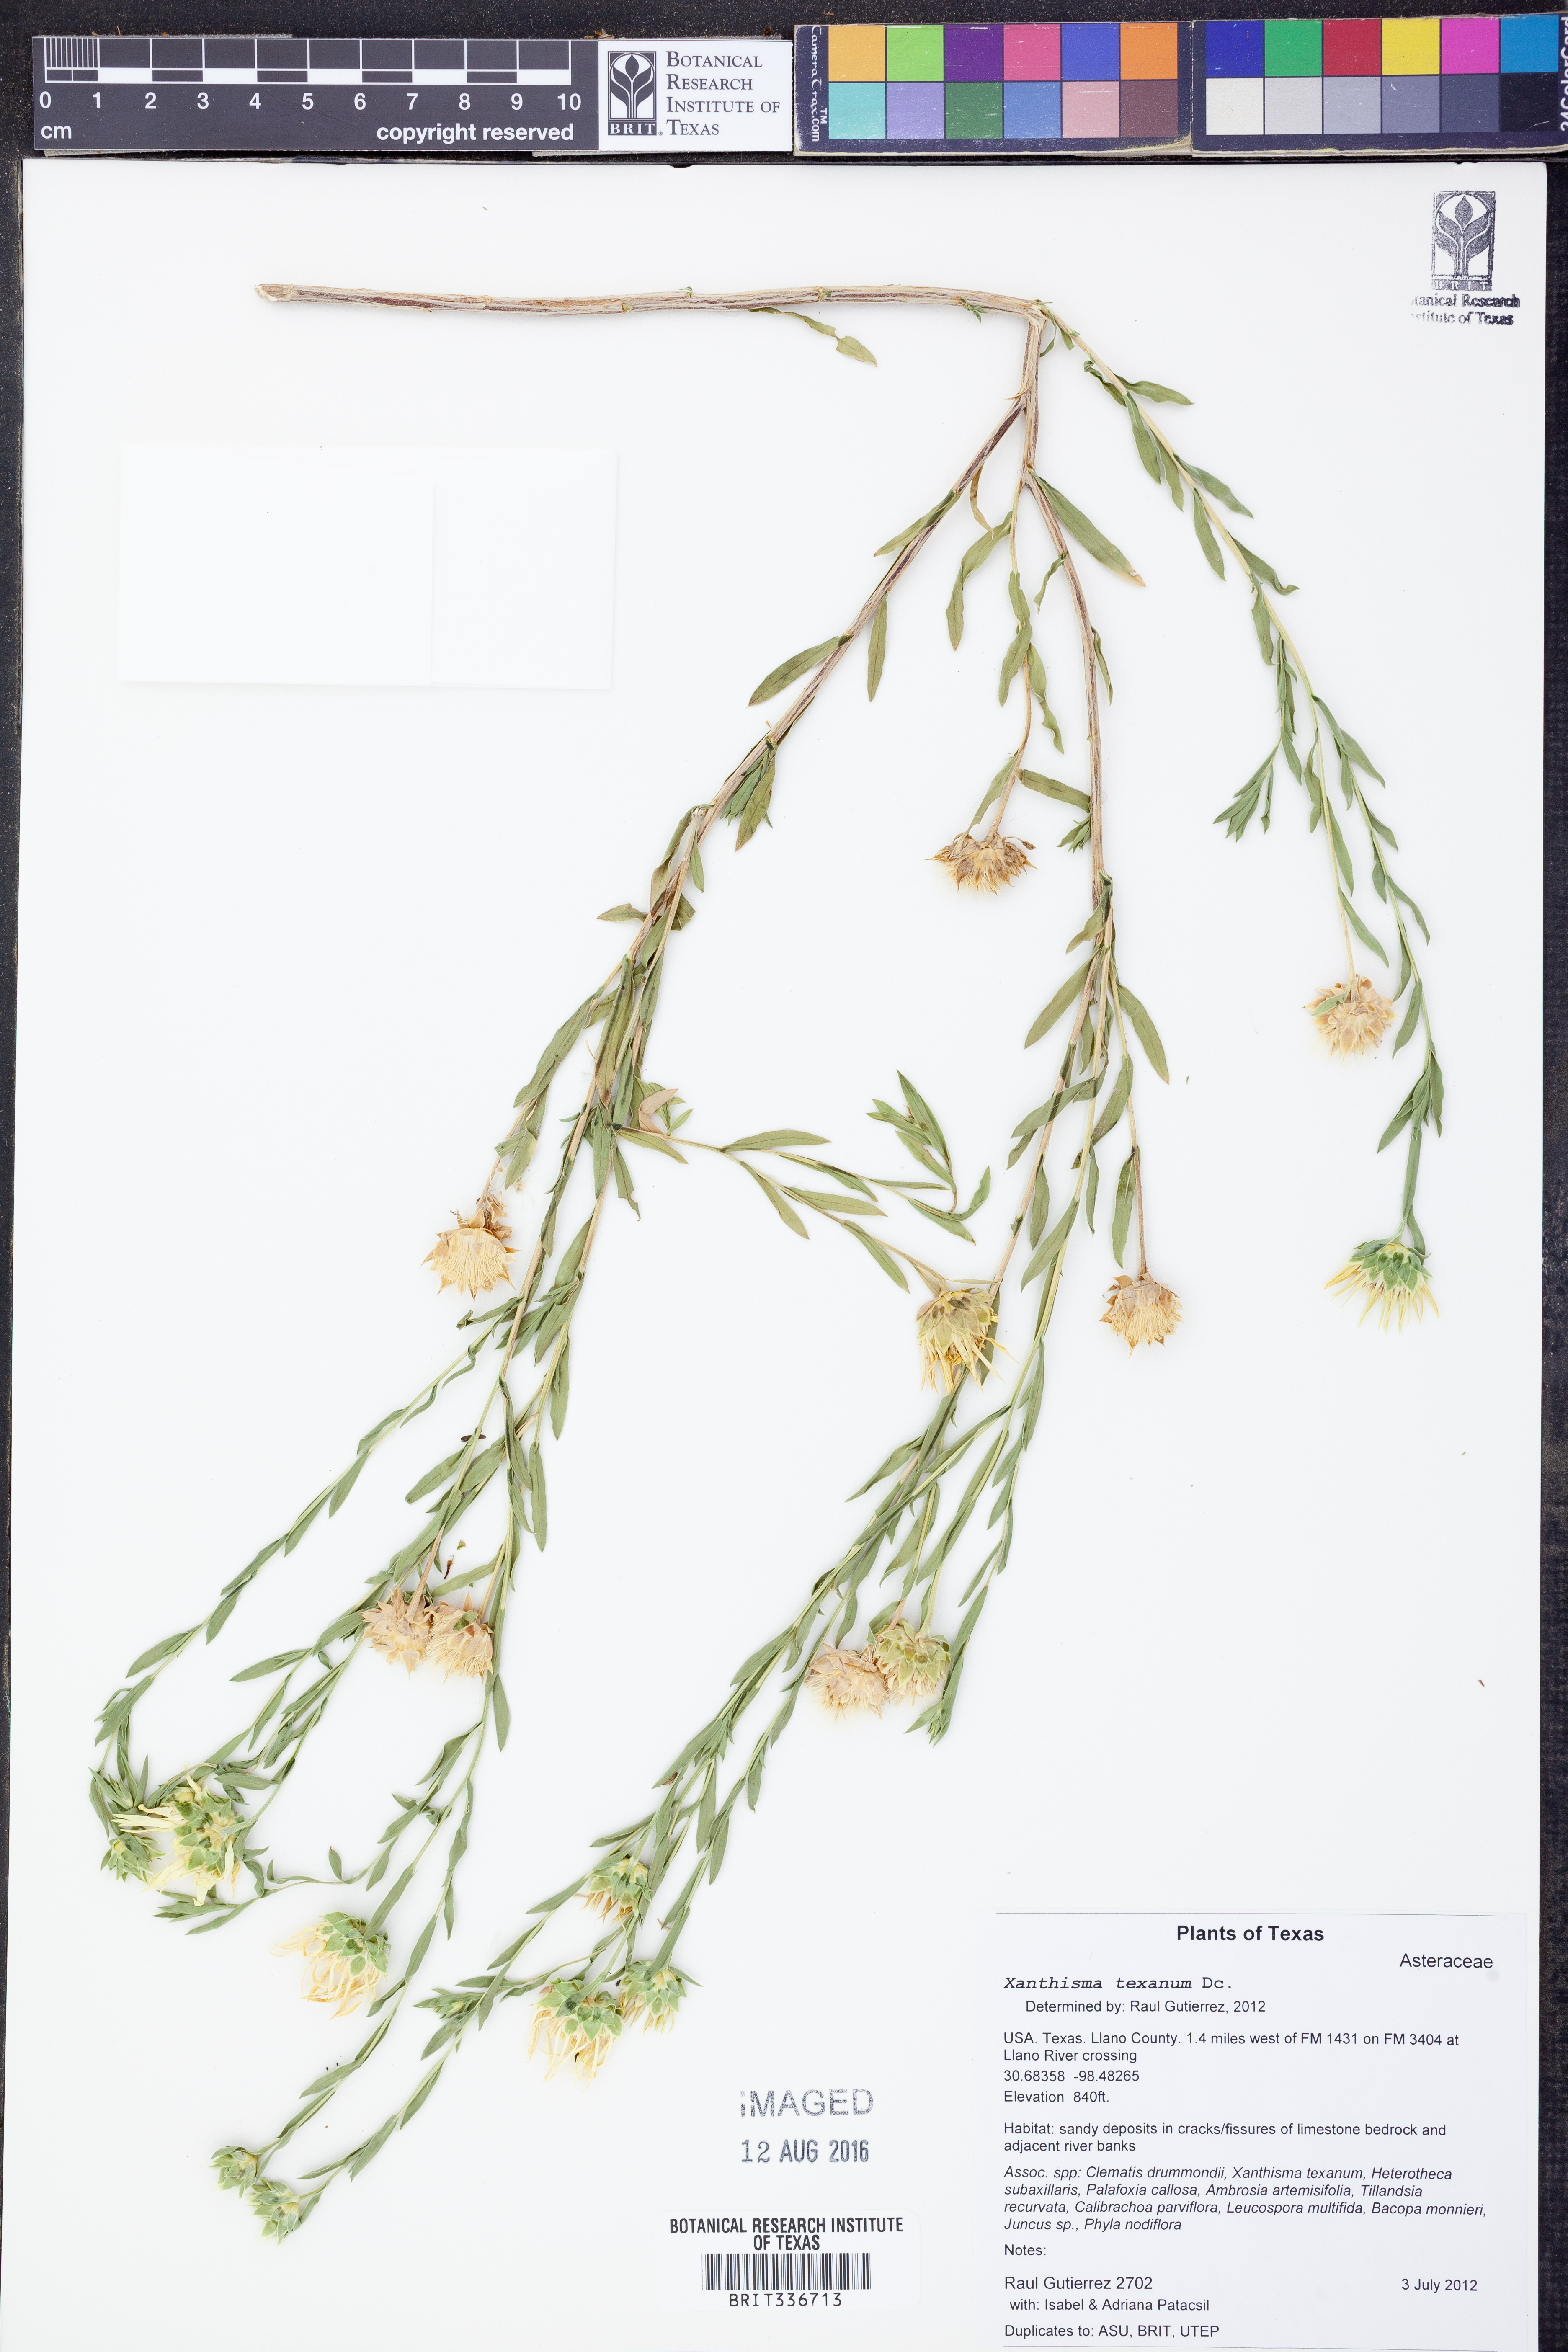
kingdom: Plantae
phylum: Tracheophyta
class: Magnoliopsida
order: Asterales
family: Asteraceae
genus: Xanthisma
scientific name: Xanthisma texanum
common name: Texas sleepy daisy
